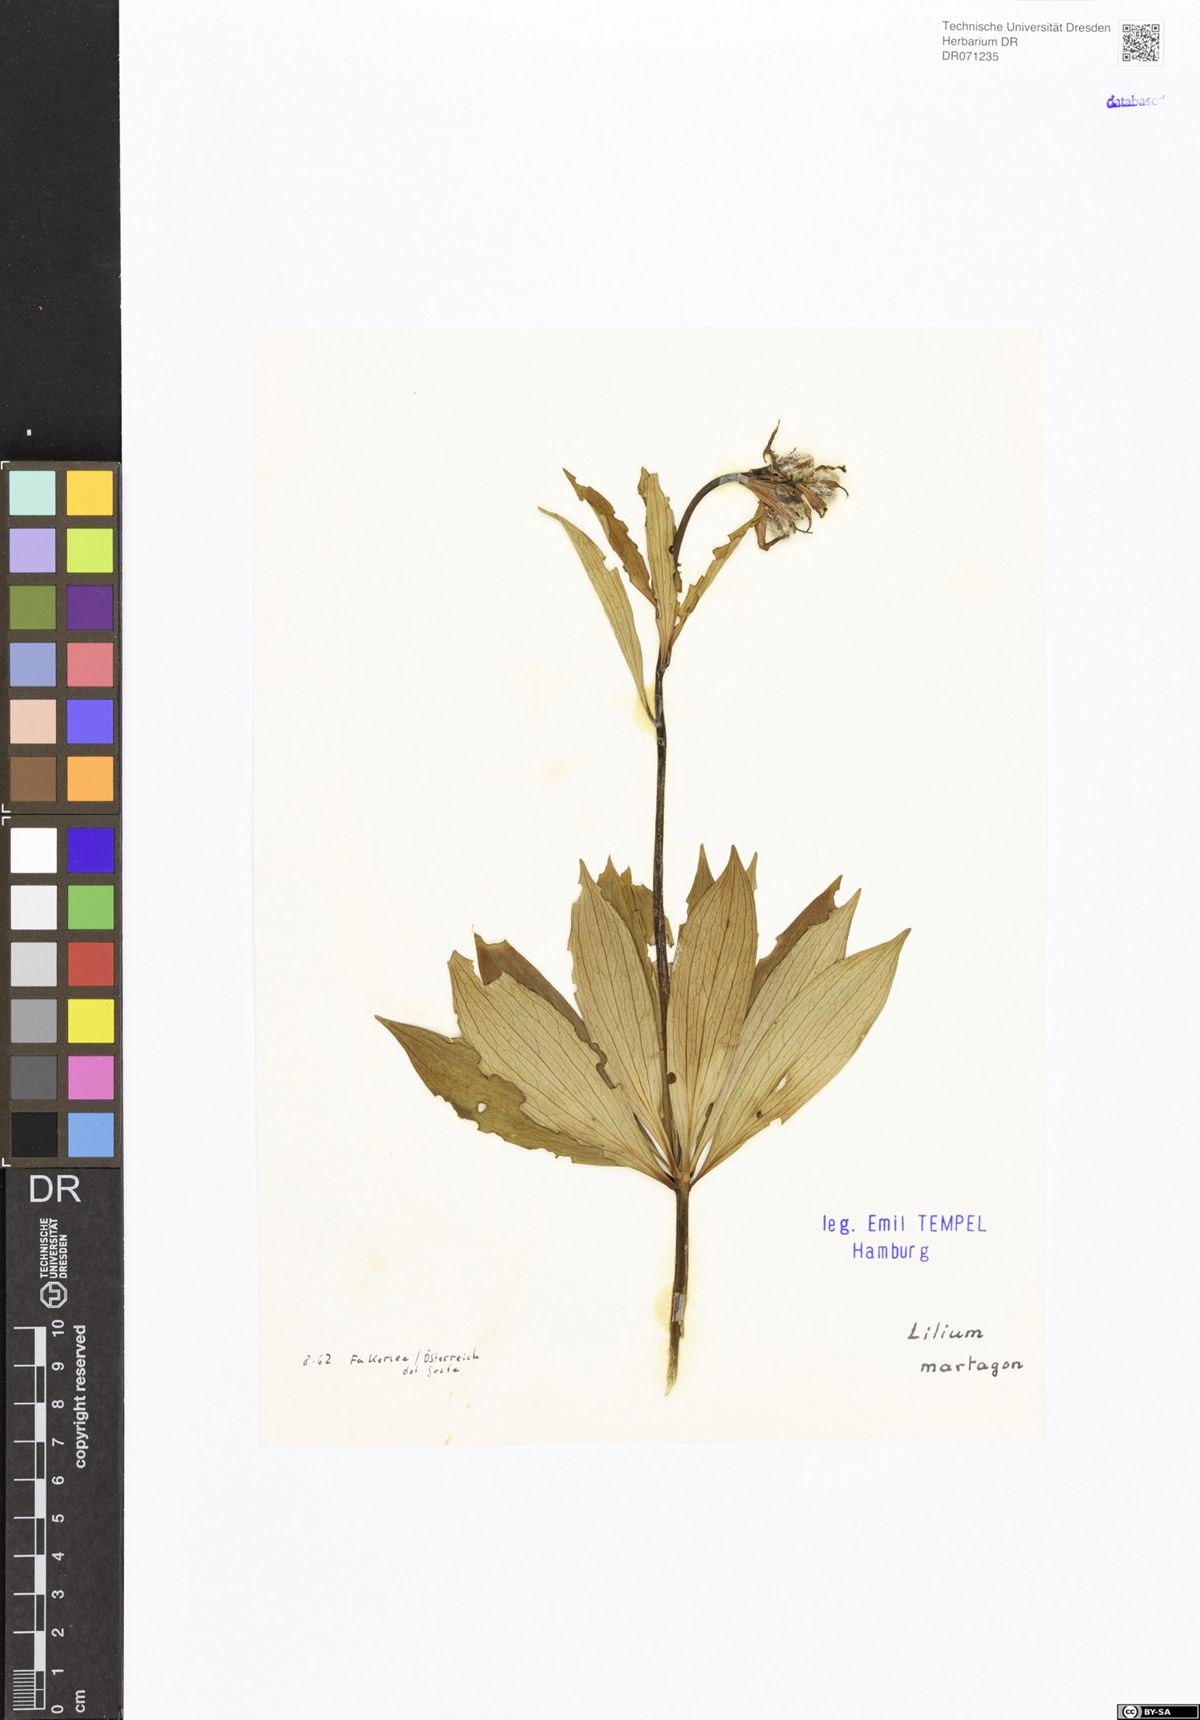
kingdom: Plantae
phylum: Tracheophyta
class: Liliopsida
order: Liliales
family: Liliaceae
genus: Lilium
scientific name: Lilium martagon
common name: Martagon lily
